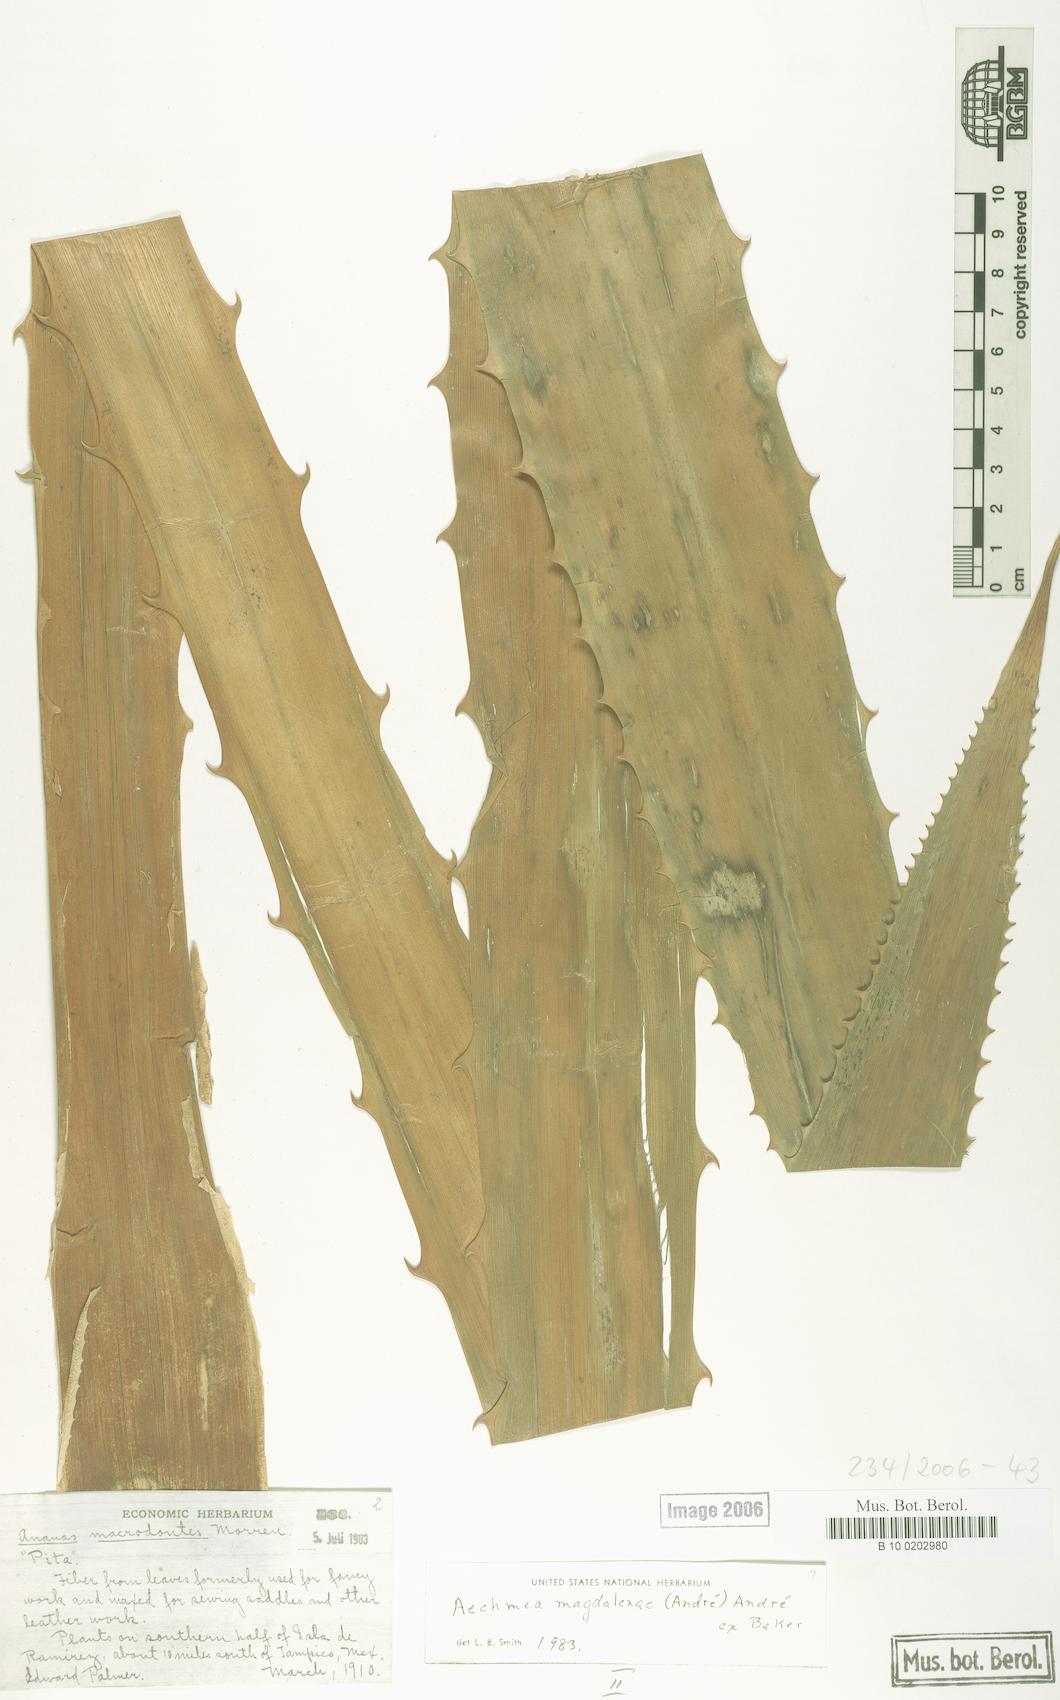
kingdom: Plantae
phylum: Tracheophyta
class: Liliopsida
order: Poales
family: Bromeliaceae
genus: Aechmea
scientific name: Aechmea magdalenae
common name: Arghan
